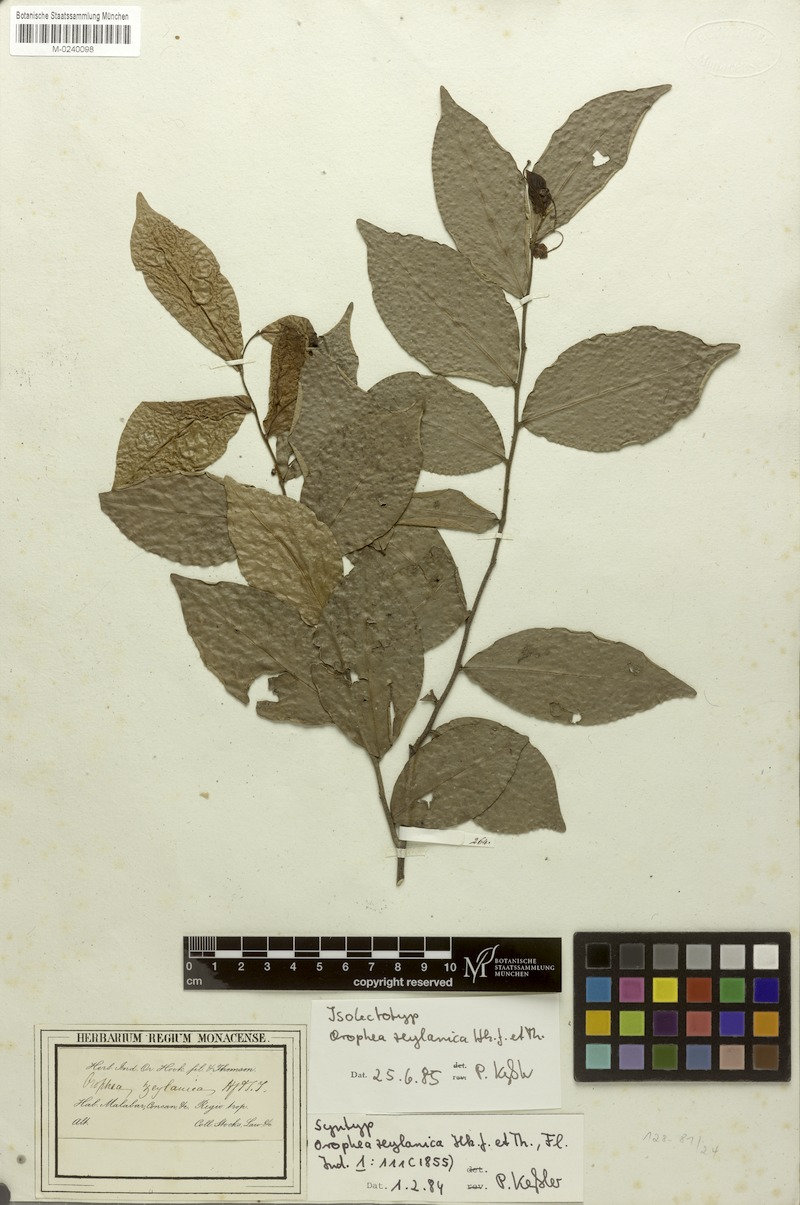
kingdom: Plantae
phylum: Tracheophyta
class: Magnoliopsida
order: Magnoliales
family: Annonaceae
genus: Orophea
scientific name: Orophea zeylanica
